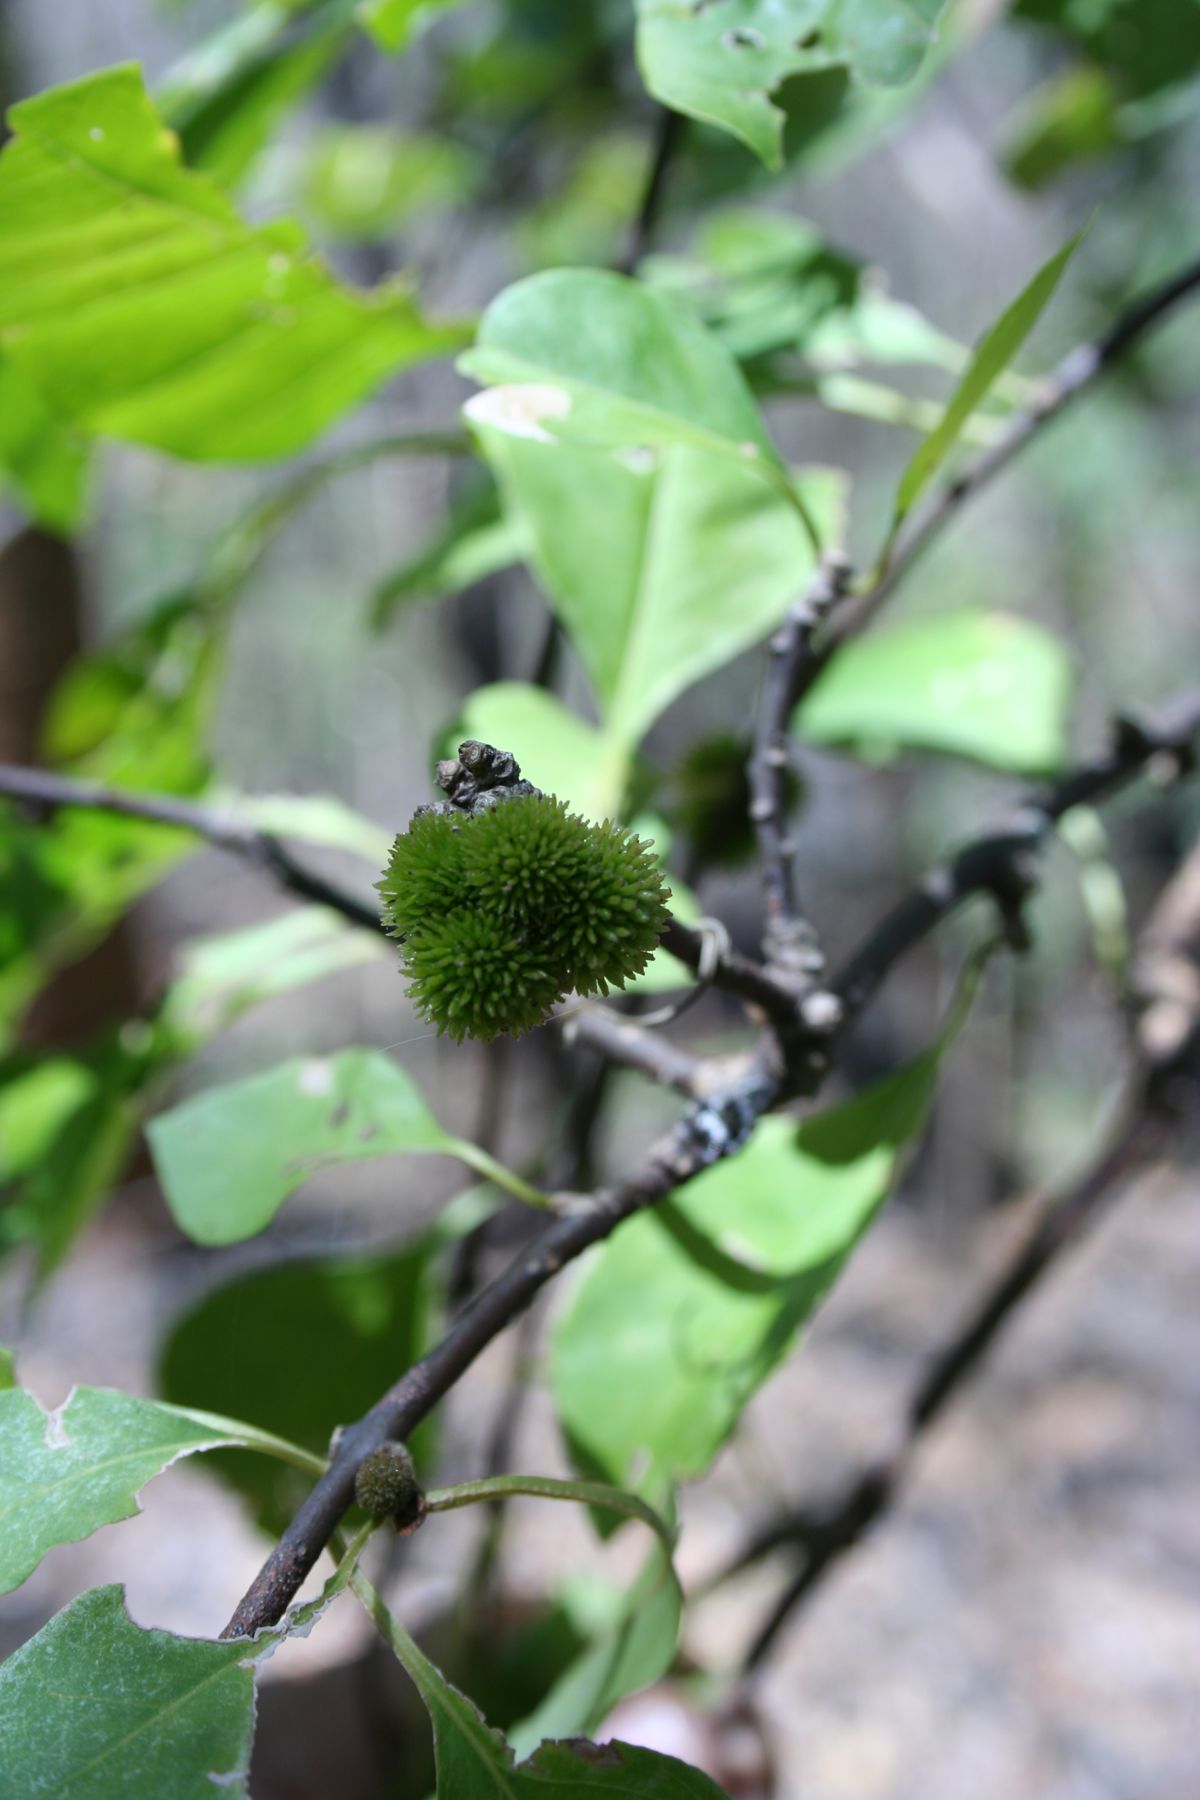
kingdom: Plantae
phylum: Tracheophyta
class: Magnoliopsida
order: Caryophyllales
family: Nyctaginaceae
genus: Pisonia
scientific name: Pisonia macranthocarpa
